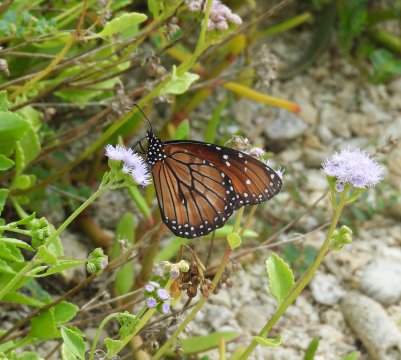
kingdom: Animalia
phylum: Arthropoda
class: Insecta
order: Lepidoptera
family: Nymphalidae
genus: Danaus
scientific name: Danaus eresimus
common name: Soldier
